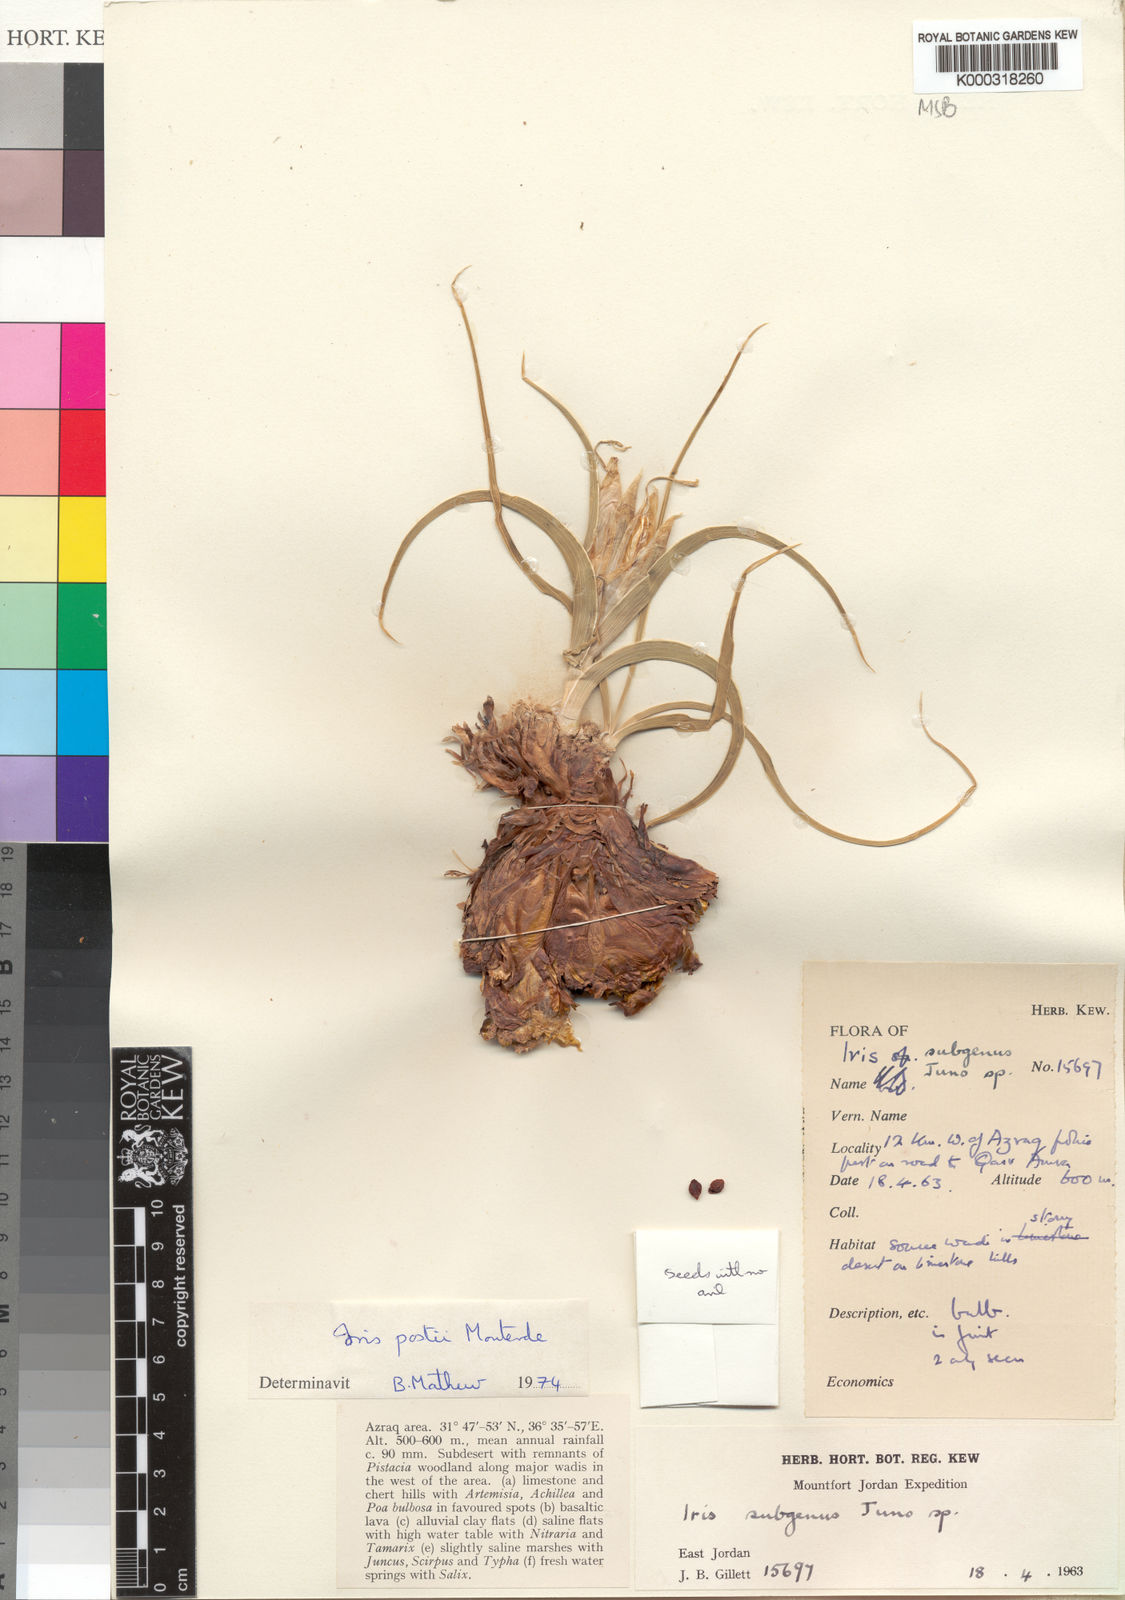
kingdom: Plantae
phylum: Tracheophyta
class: Liliopsida
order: Asparagales
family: Iridaceae
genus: Iris
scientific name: Iris postii
